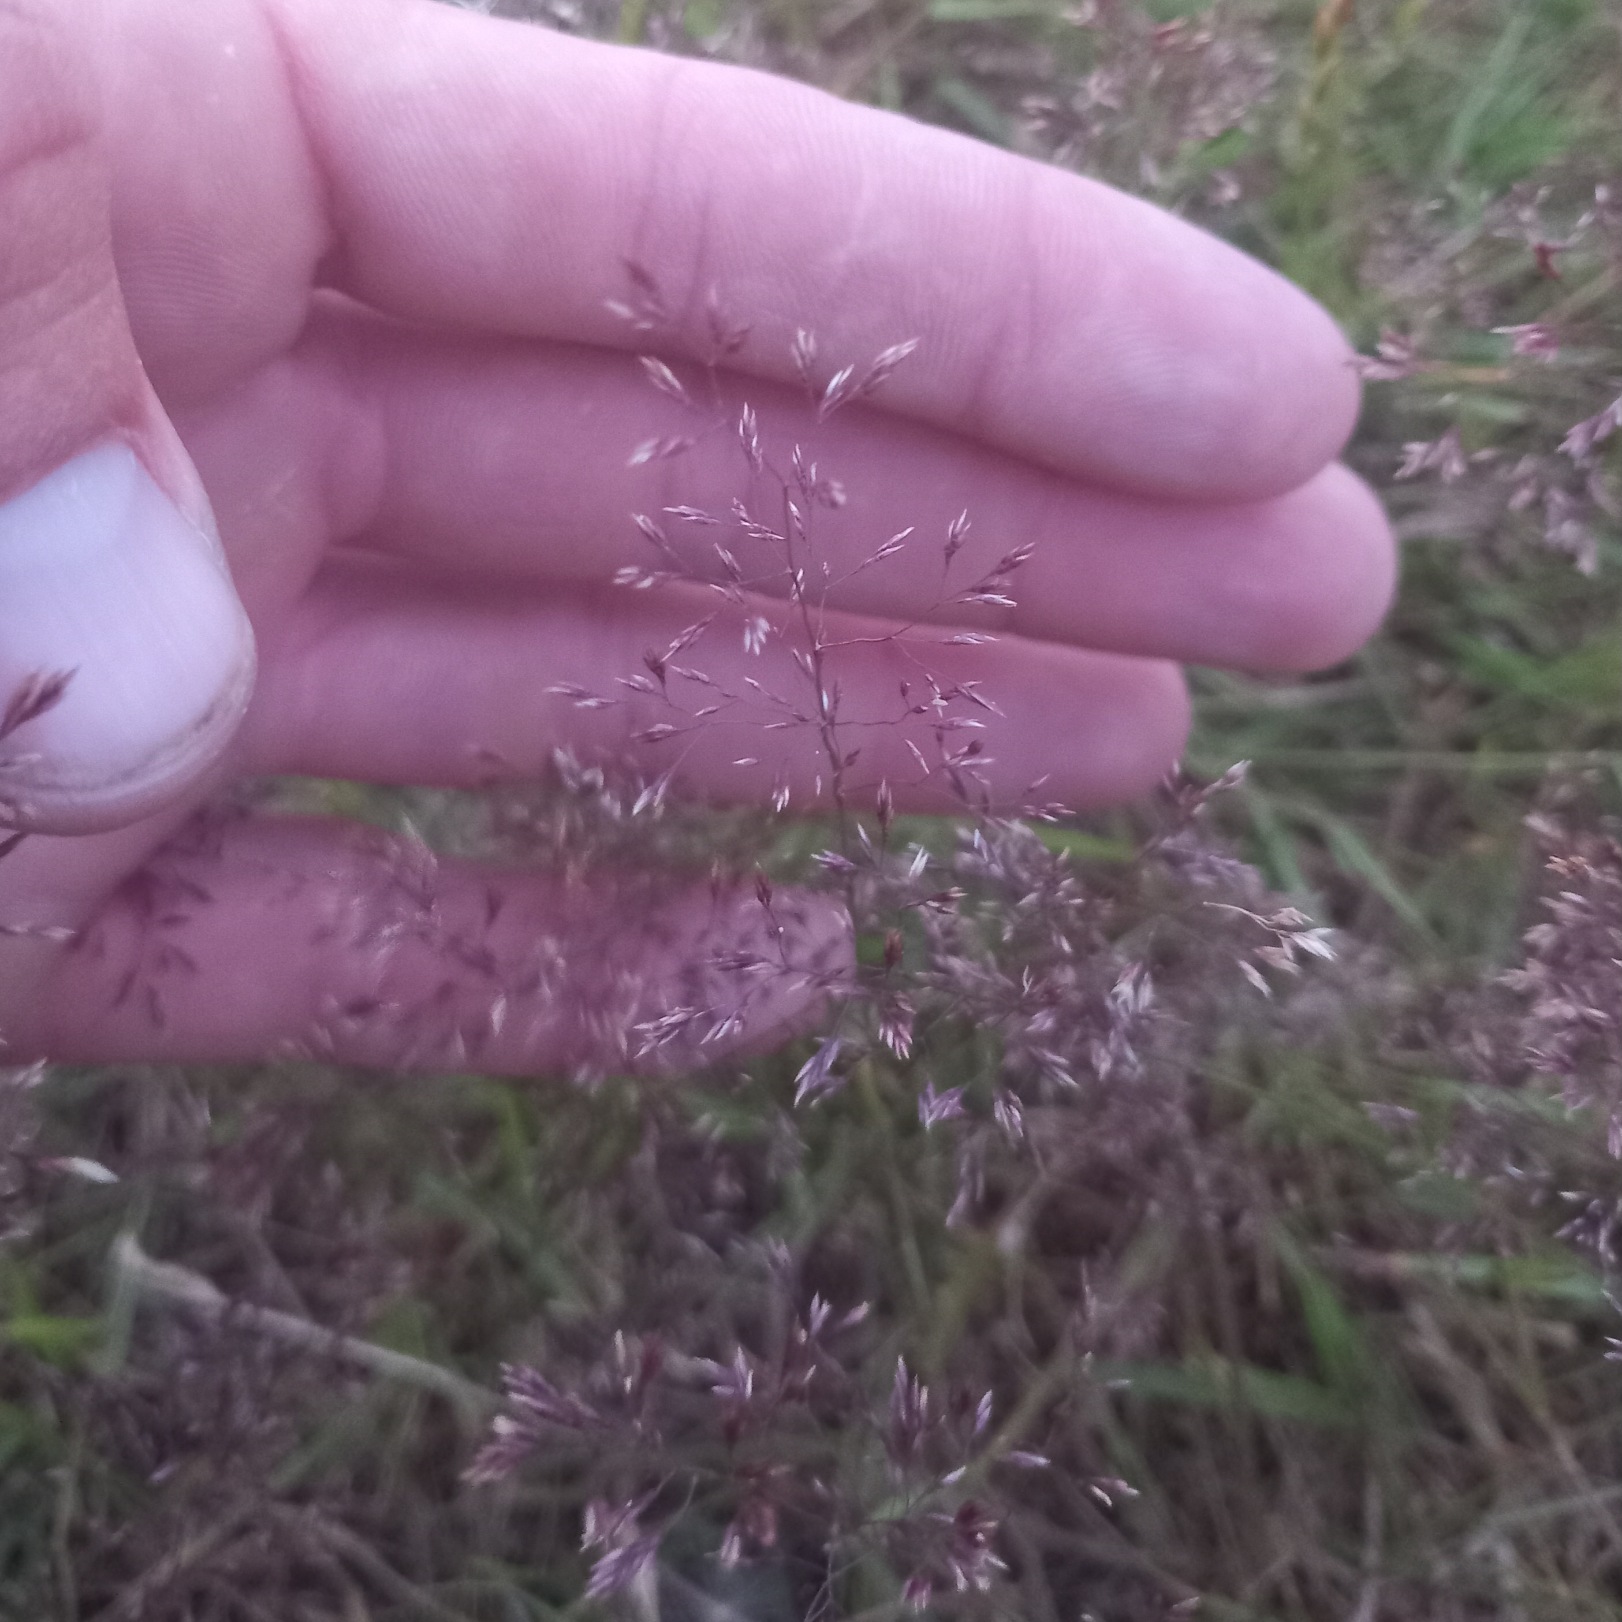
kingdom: Plantae
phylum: Tracheophyta
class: Liliopsida
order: Poales
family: Poaceae
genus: Agrostis
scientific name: Agrostis capillaris
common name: Almindelig hvene
